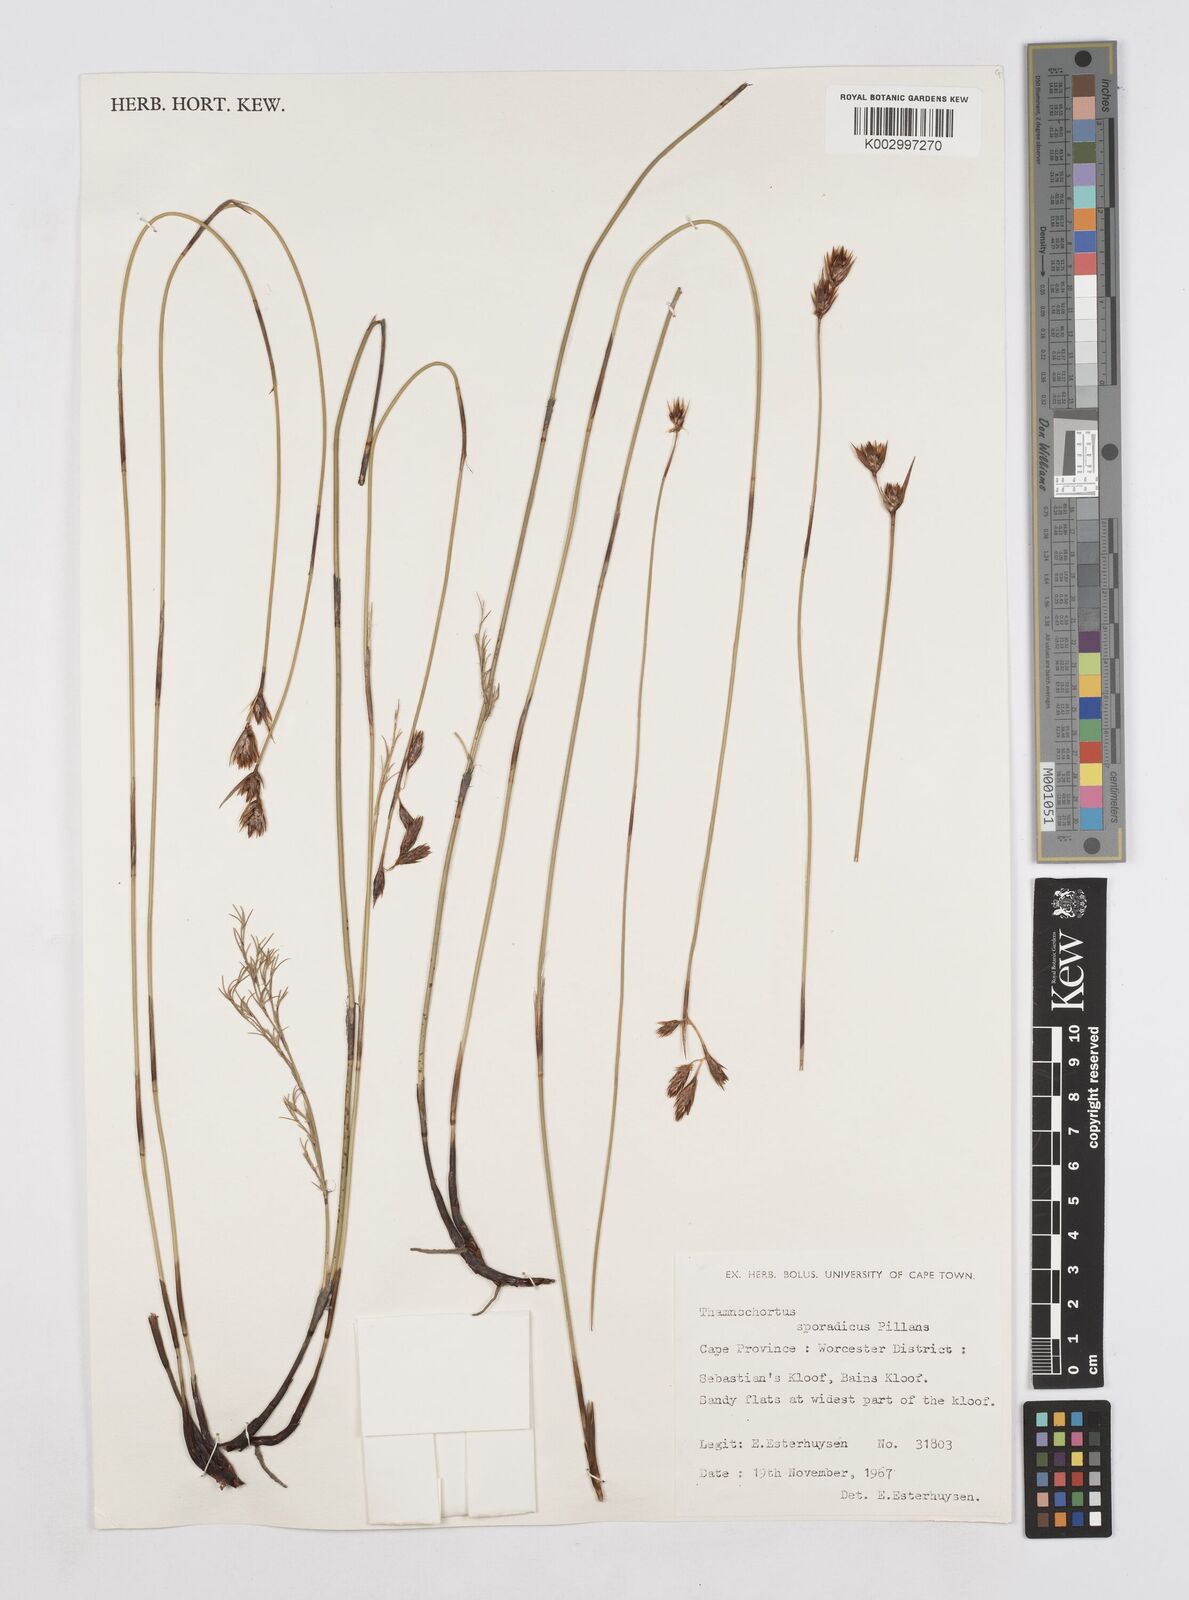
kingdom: Plantae
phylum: Tracheophyta
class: Liliopsida
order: Poales
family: Restionaceae
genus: Thamnochortus
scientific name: Thamnochortus sporadicus
